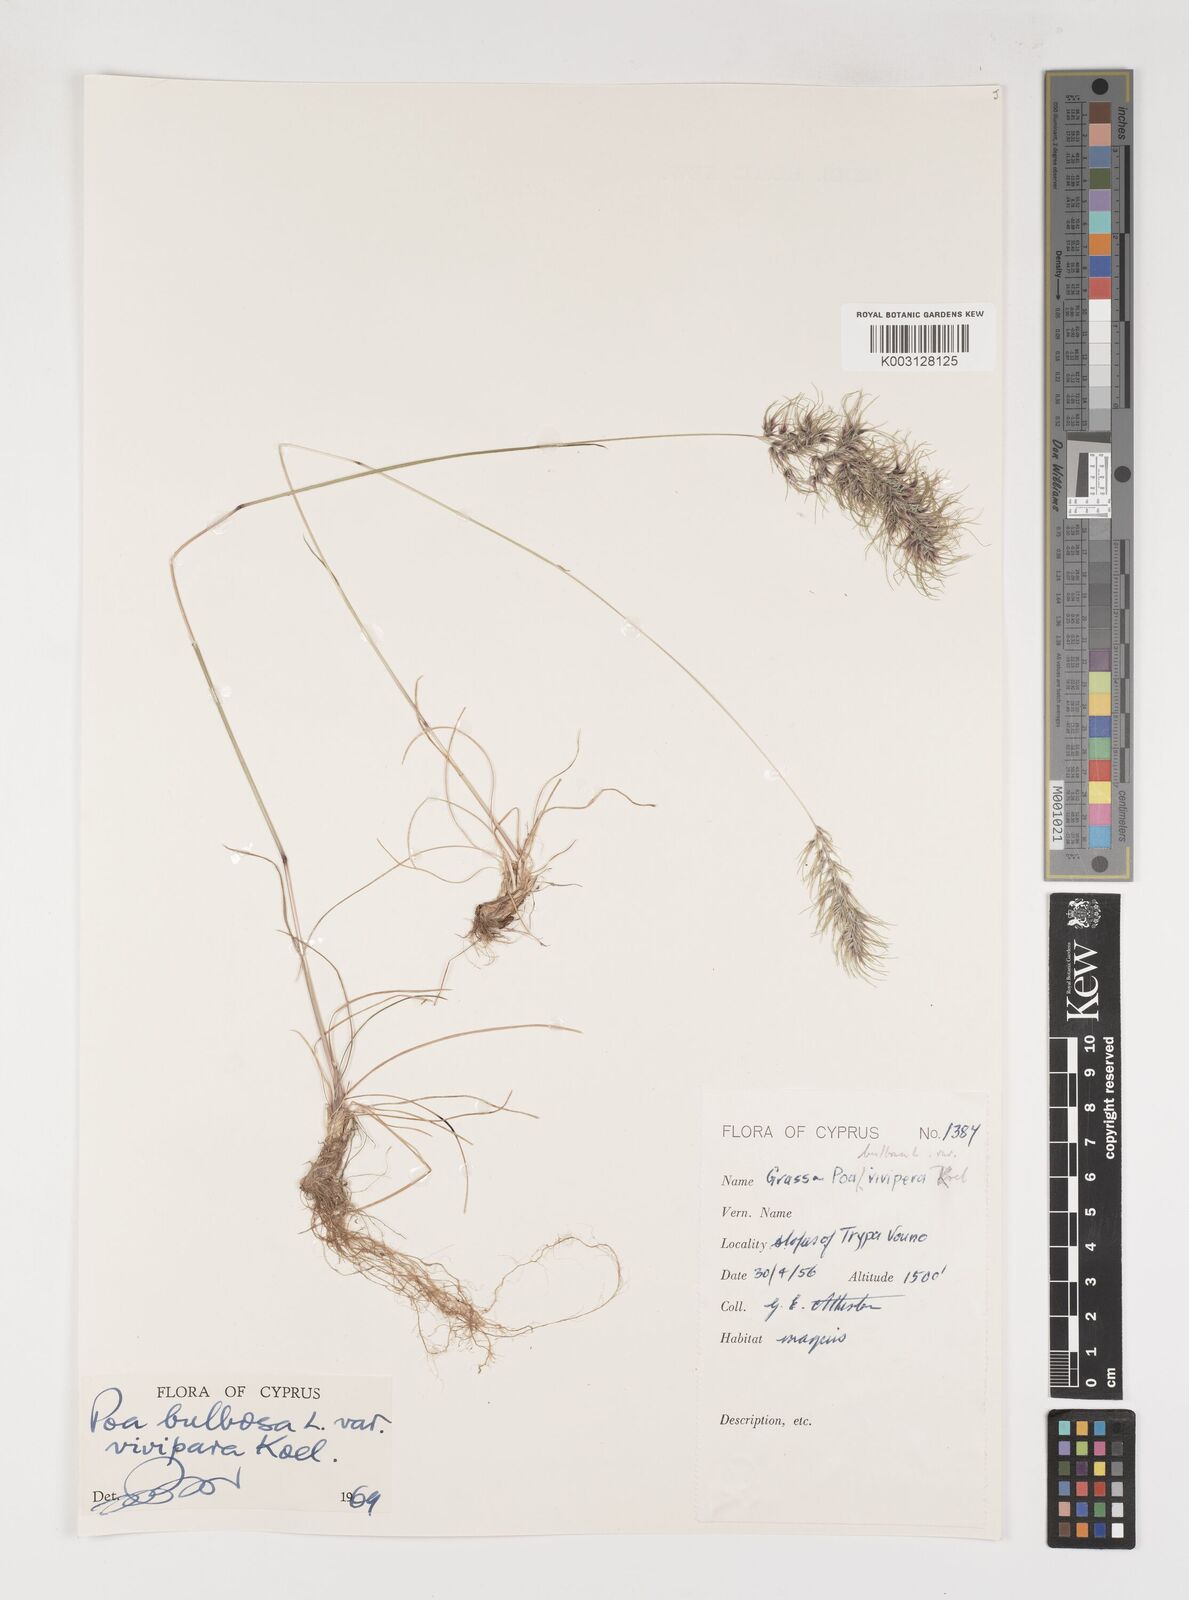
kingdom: Plantae
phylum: Tracheophyta
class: Liliopsida
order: Poales
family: Poaceae
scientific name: Poaceae
